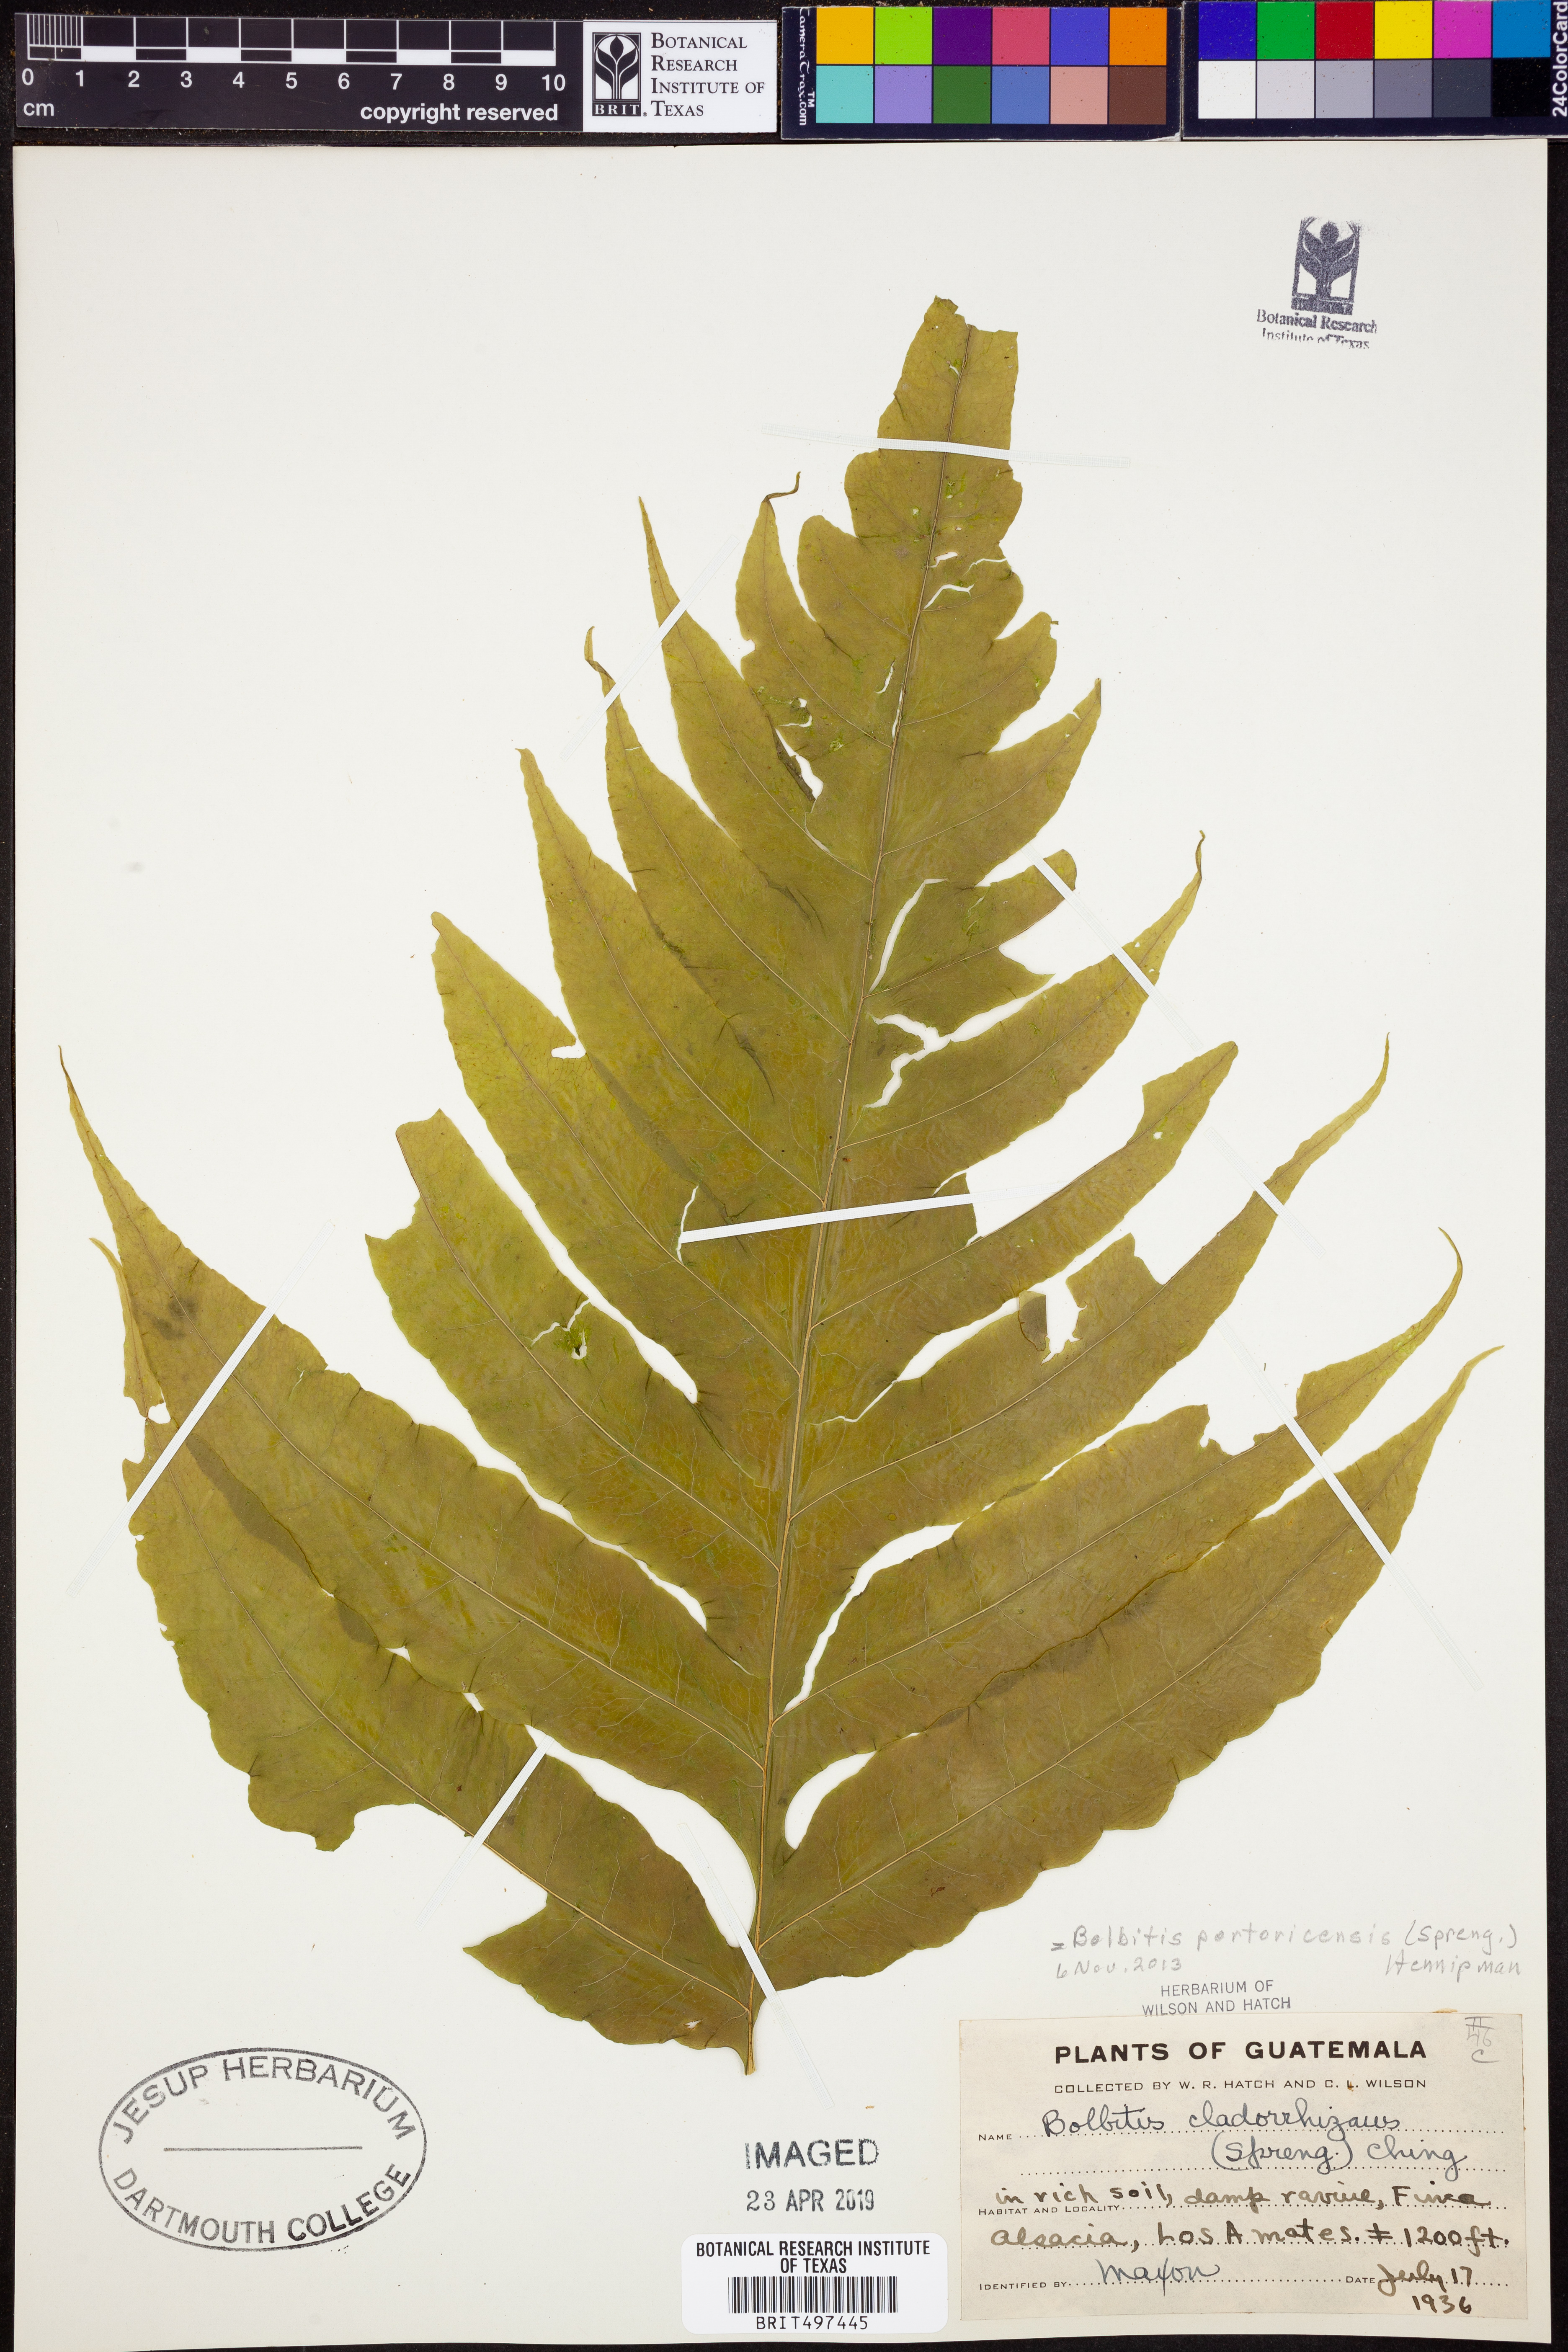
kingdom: Plantae
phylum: Tracheophyta
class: Polypodiopsida
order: Polypodiales
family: Dryopteridaceae
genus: Bolbitis
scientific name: Bolbitis portoricensis
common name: Puerto rico creepingfer
